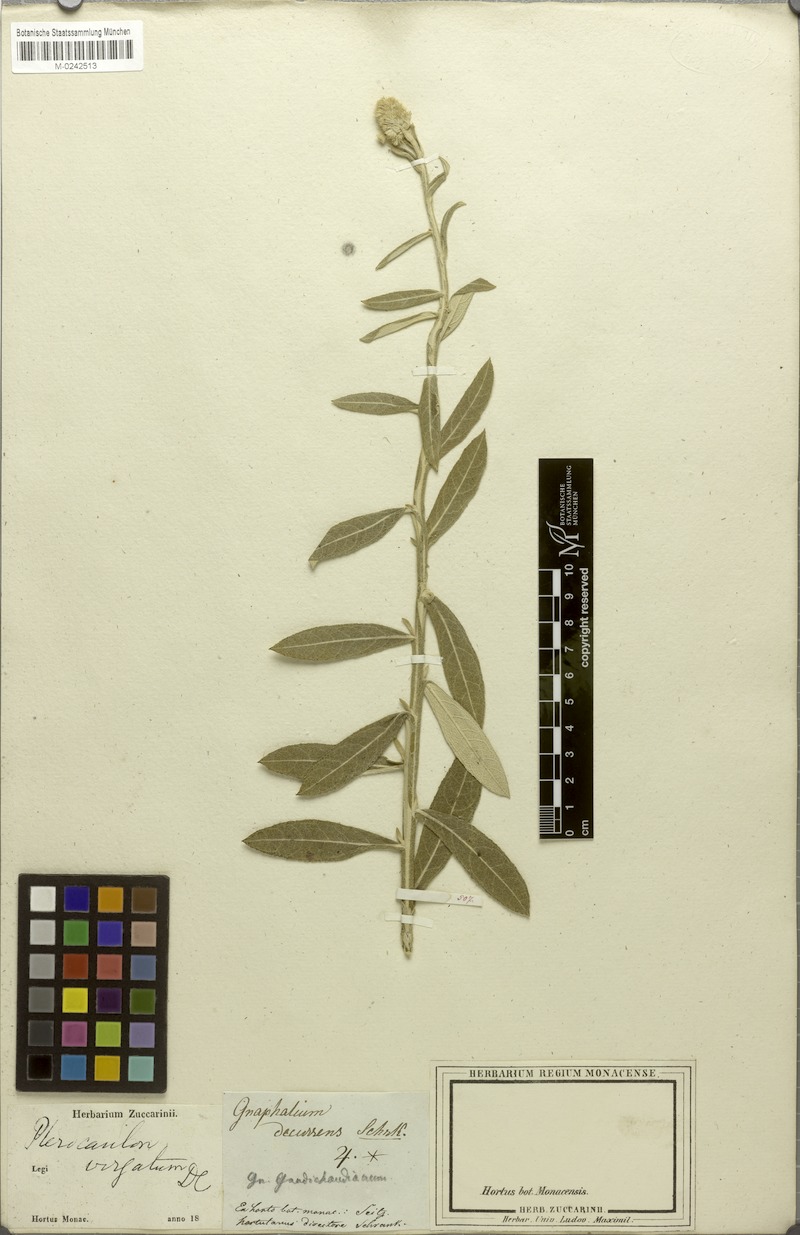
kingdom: Plantae
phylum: Tracheophyta
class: Magnoliopsida
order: Asterales
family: Asteraceae
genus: Pterocaulon
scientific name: Pterocaulon virgatum
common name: Wand blackroot
